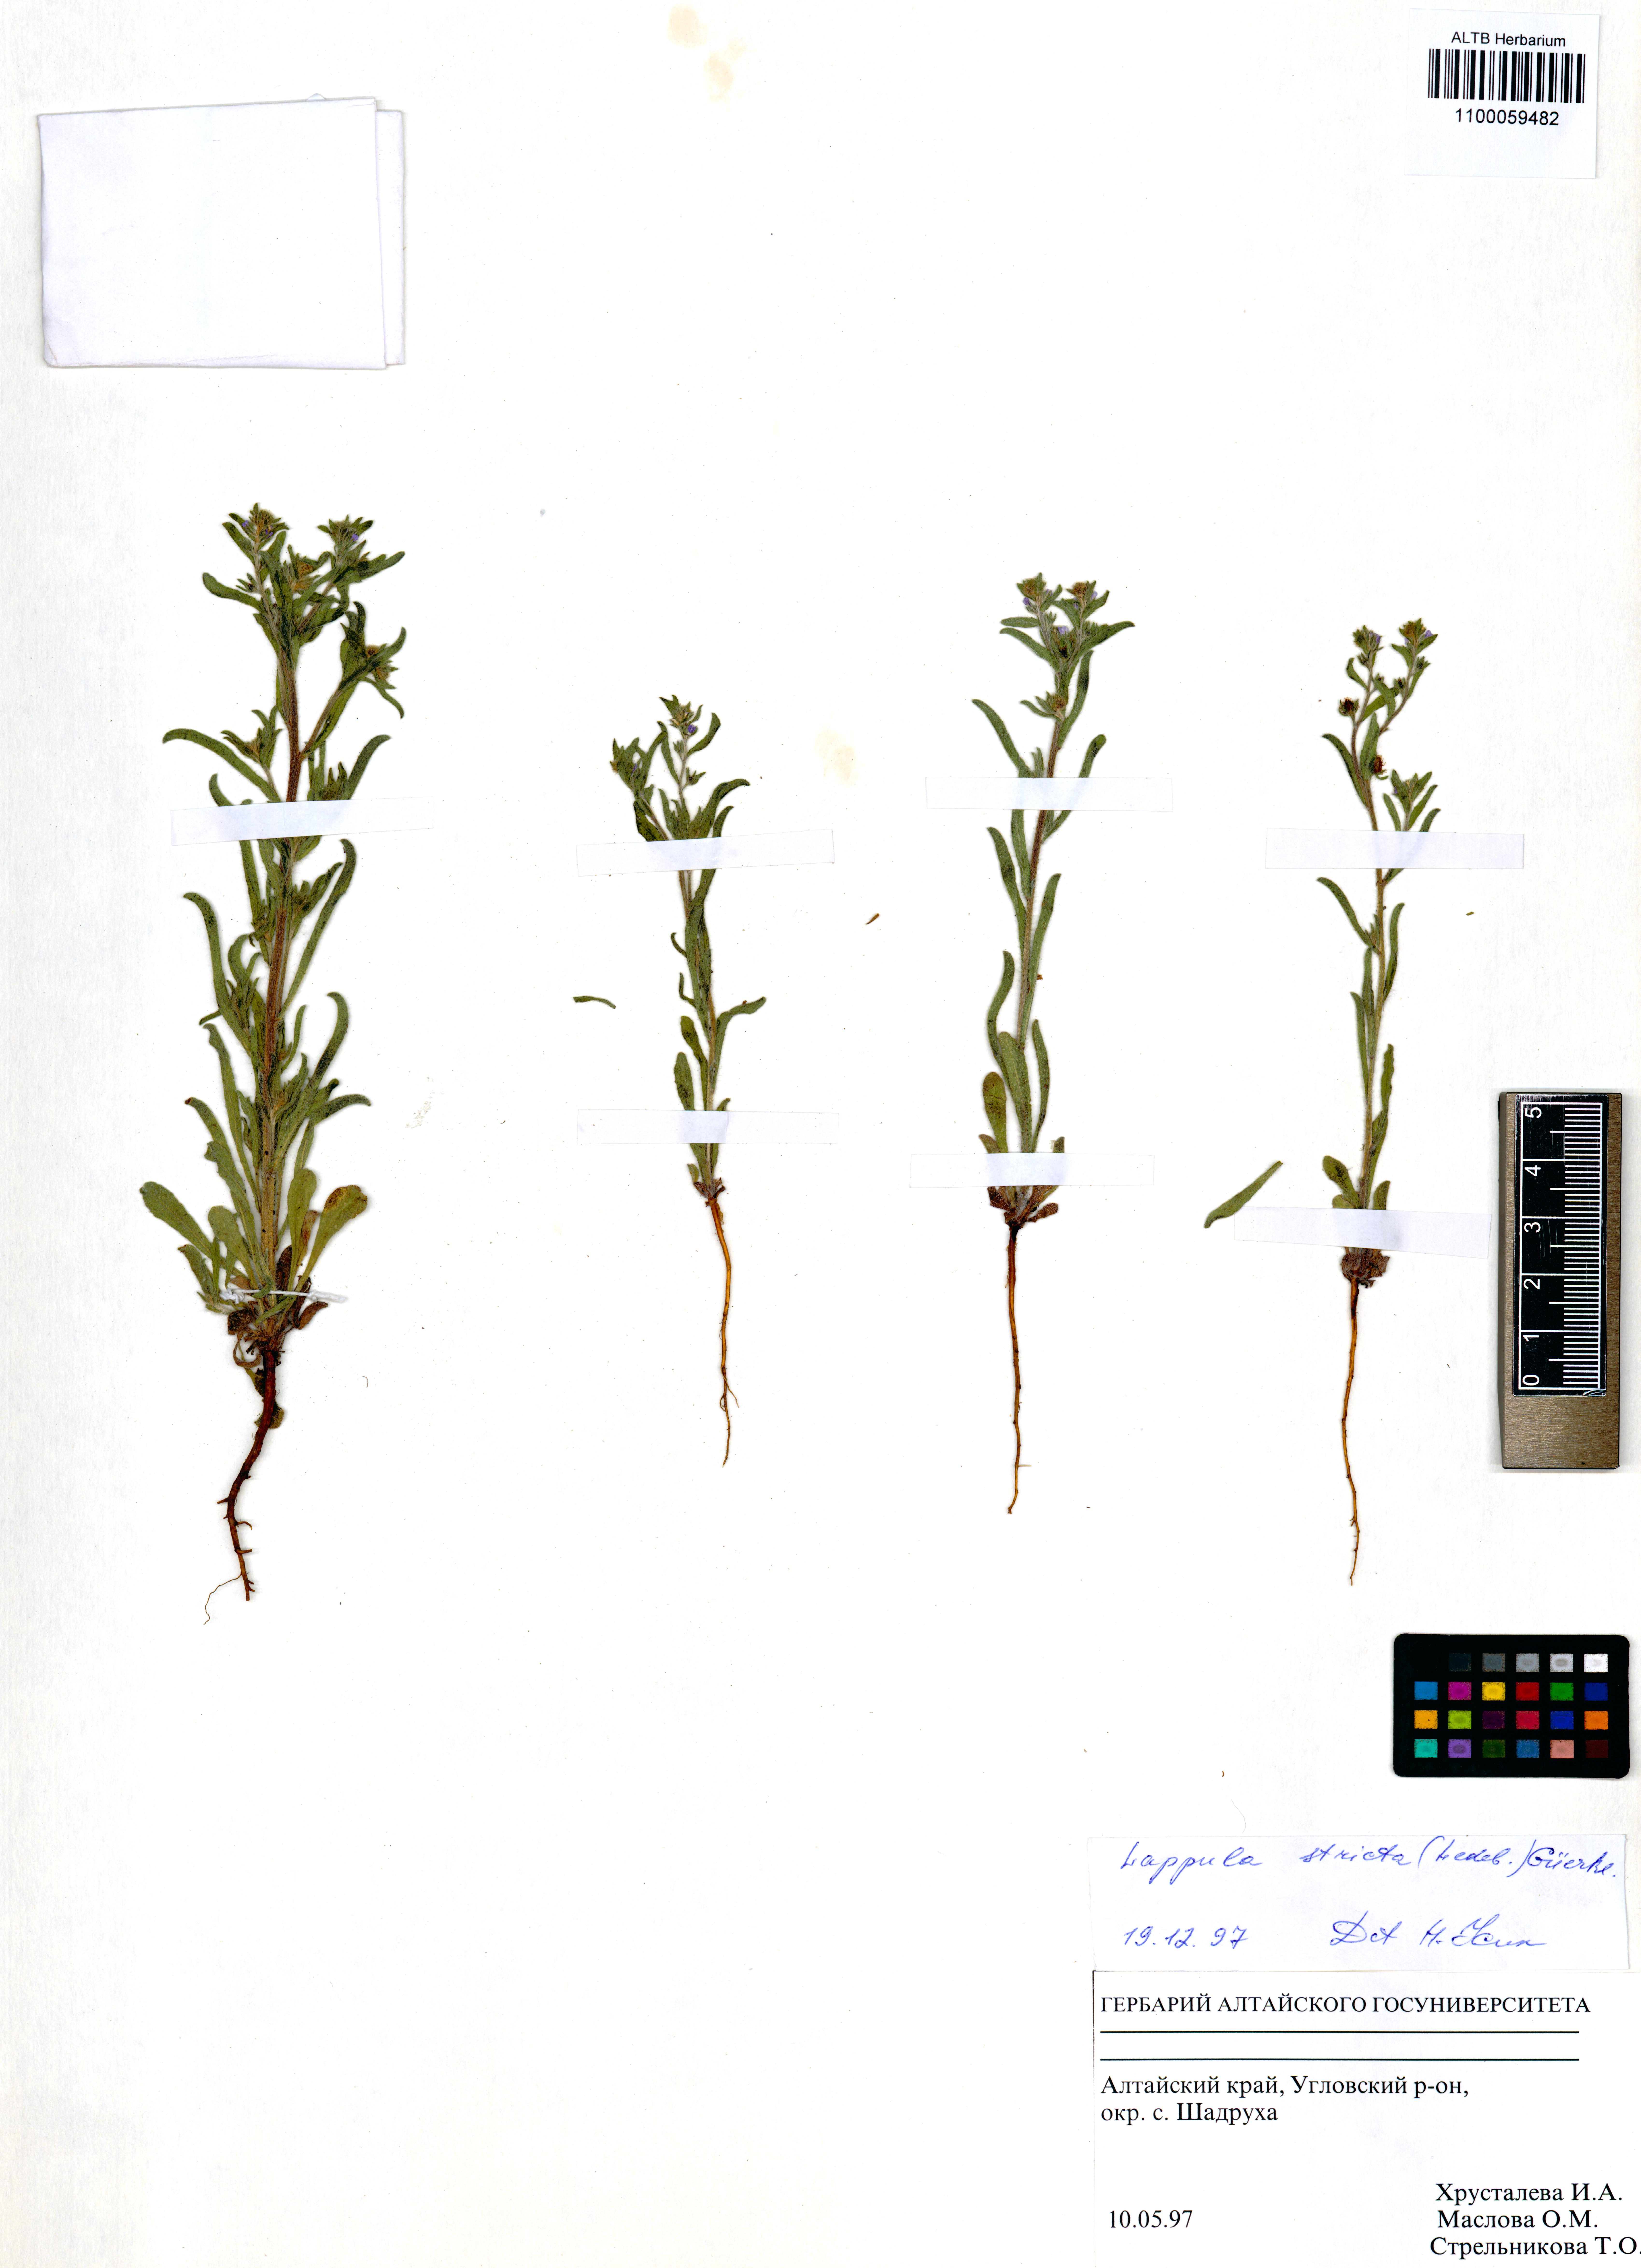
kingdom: Plantae
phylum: Tracheophyta
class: Magnoliopsida
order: Boraginales
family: Boraginaceae
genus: Lappula
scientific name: Lappula stricta
